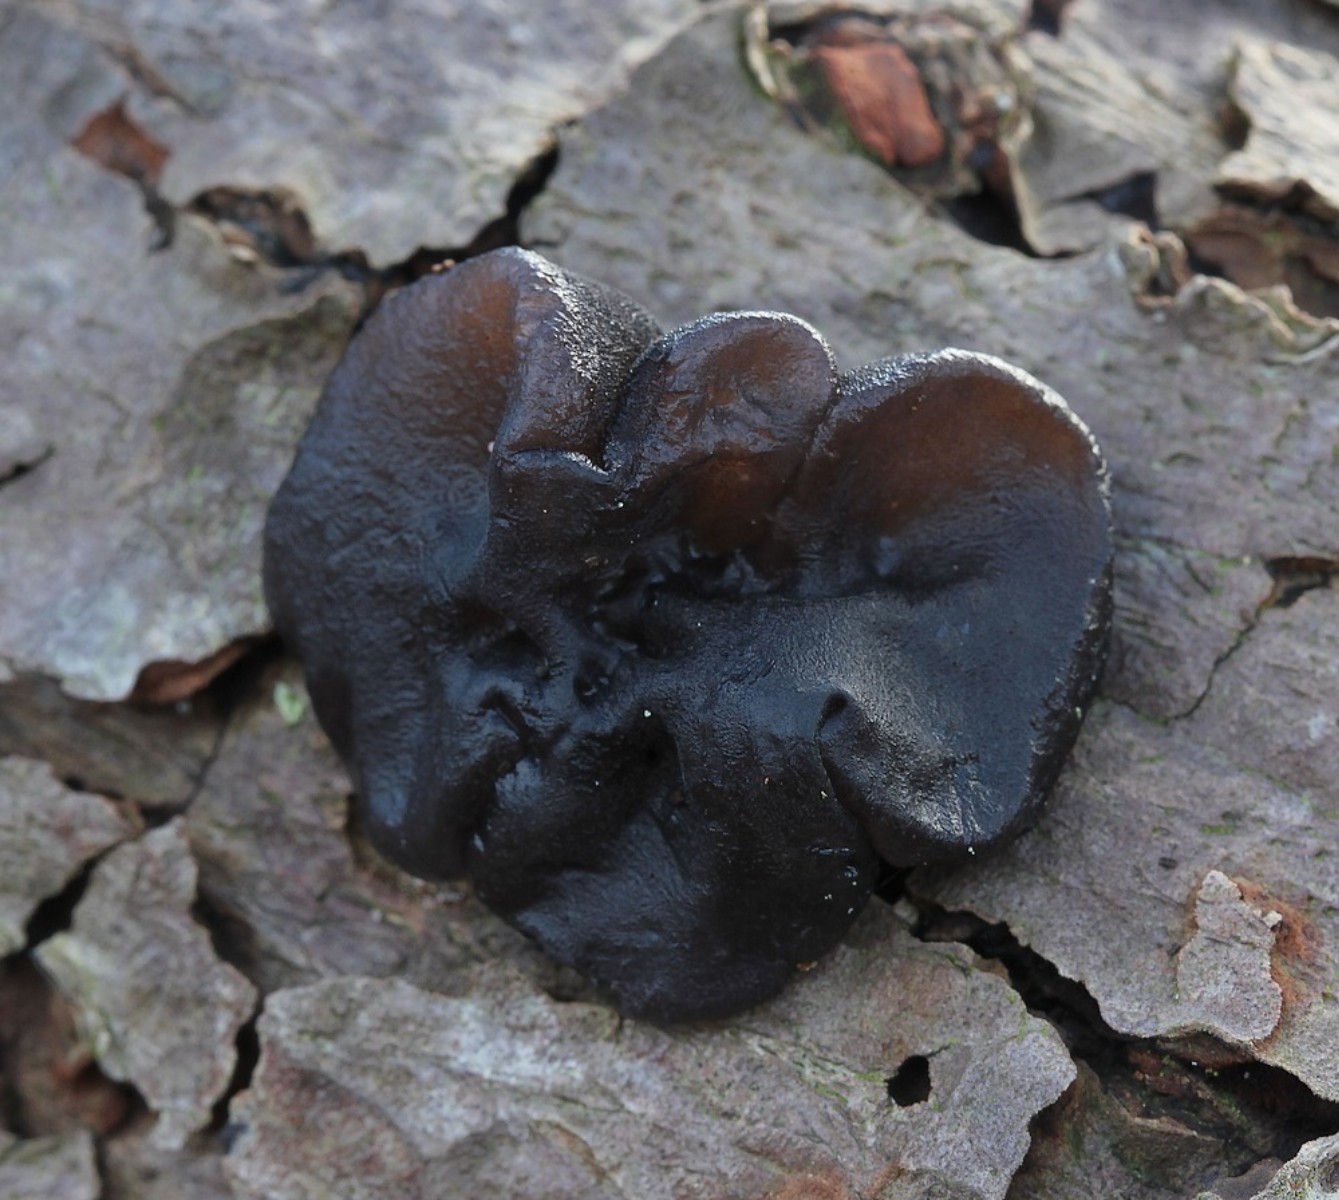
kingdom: Fungi
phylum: Basidiomycota
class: Agaricomycetes
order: Auriculariales
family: Auriculariaceae
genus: Exidia
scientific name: Exidia glandulosa
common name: ege-bævretop
